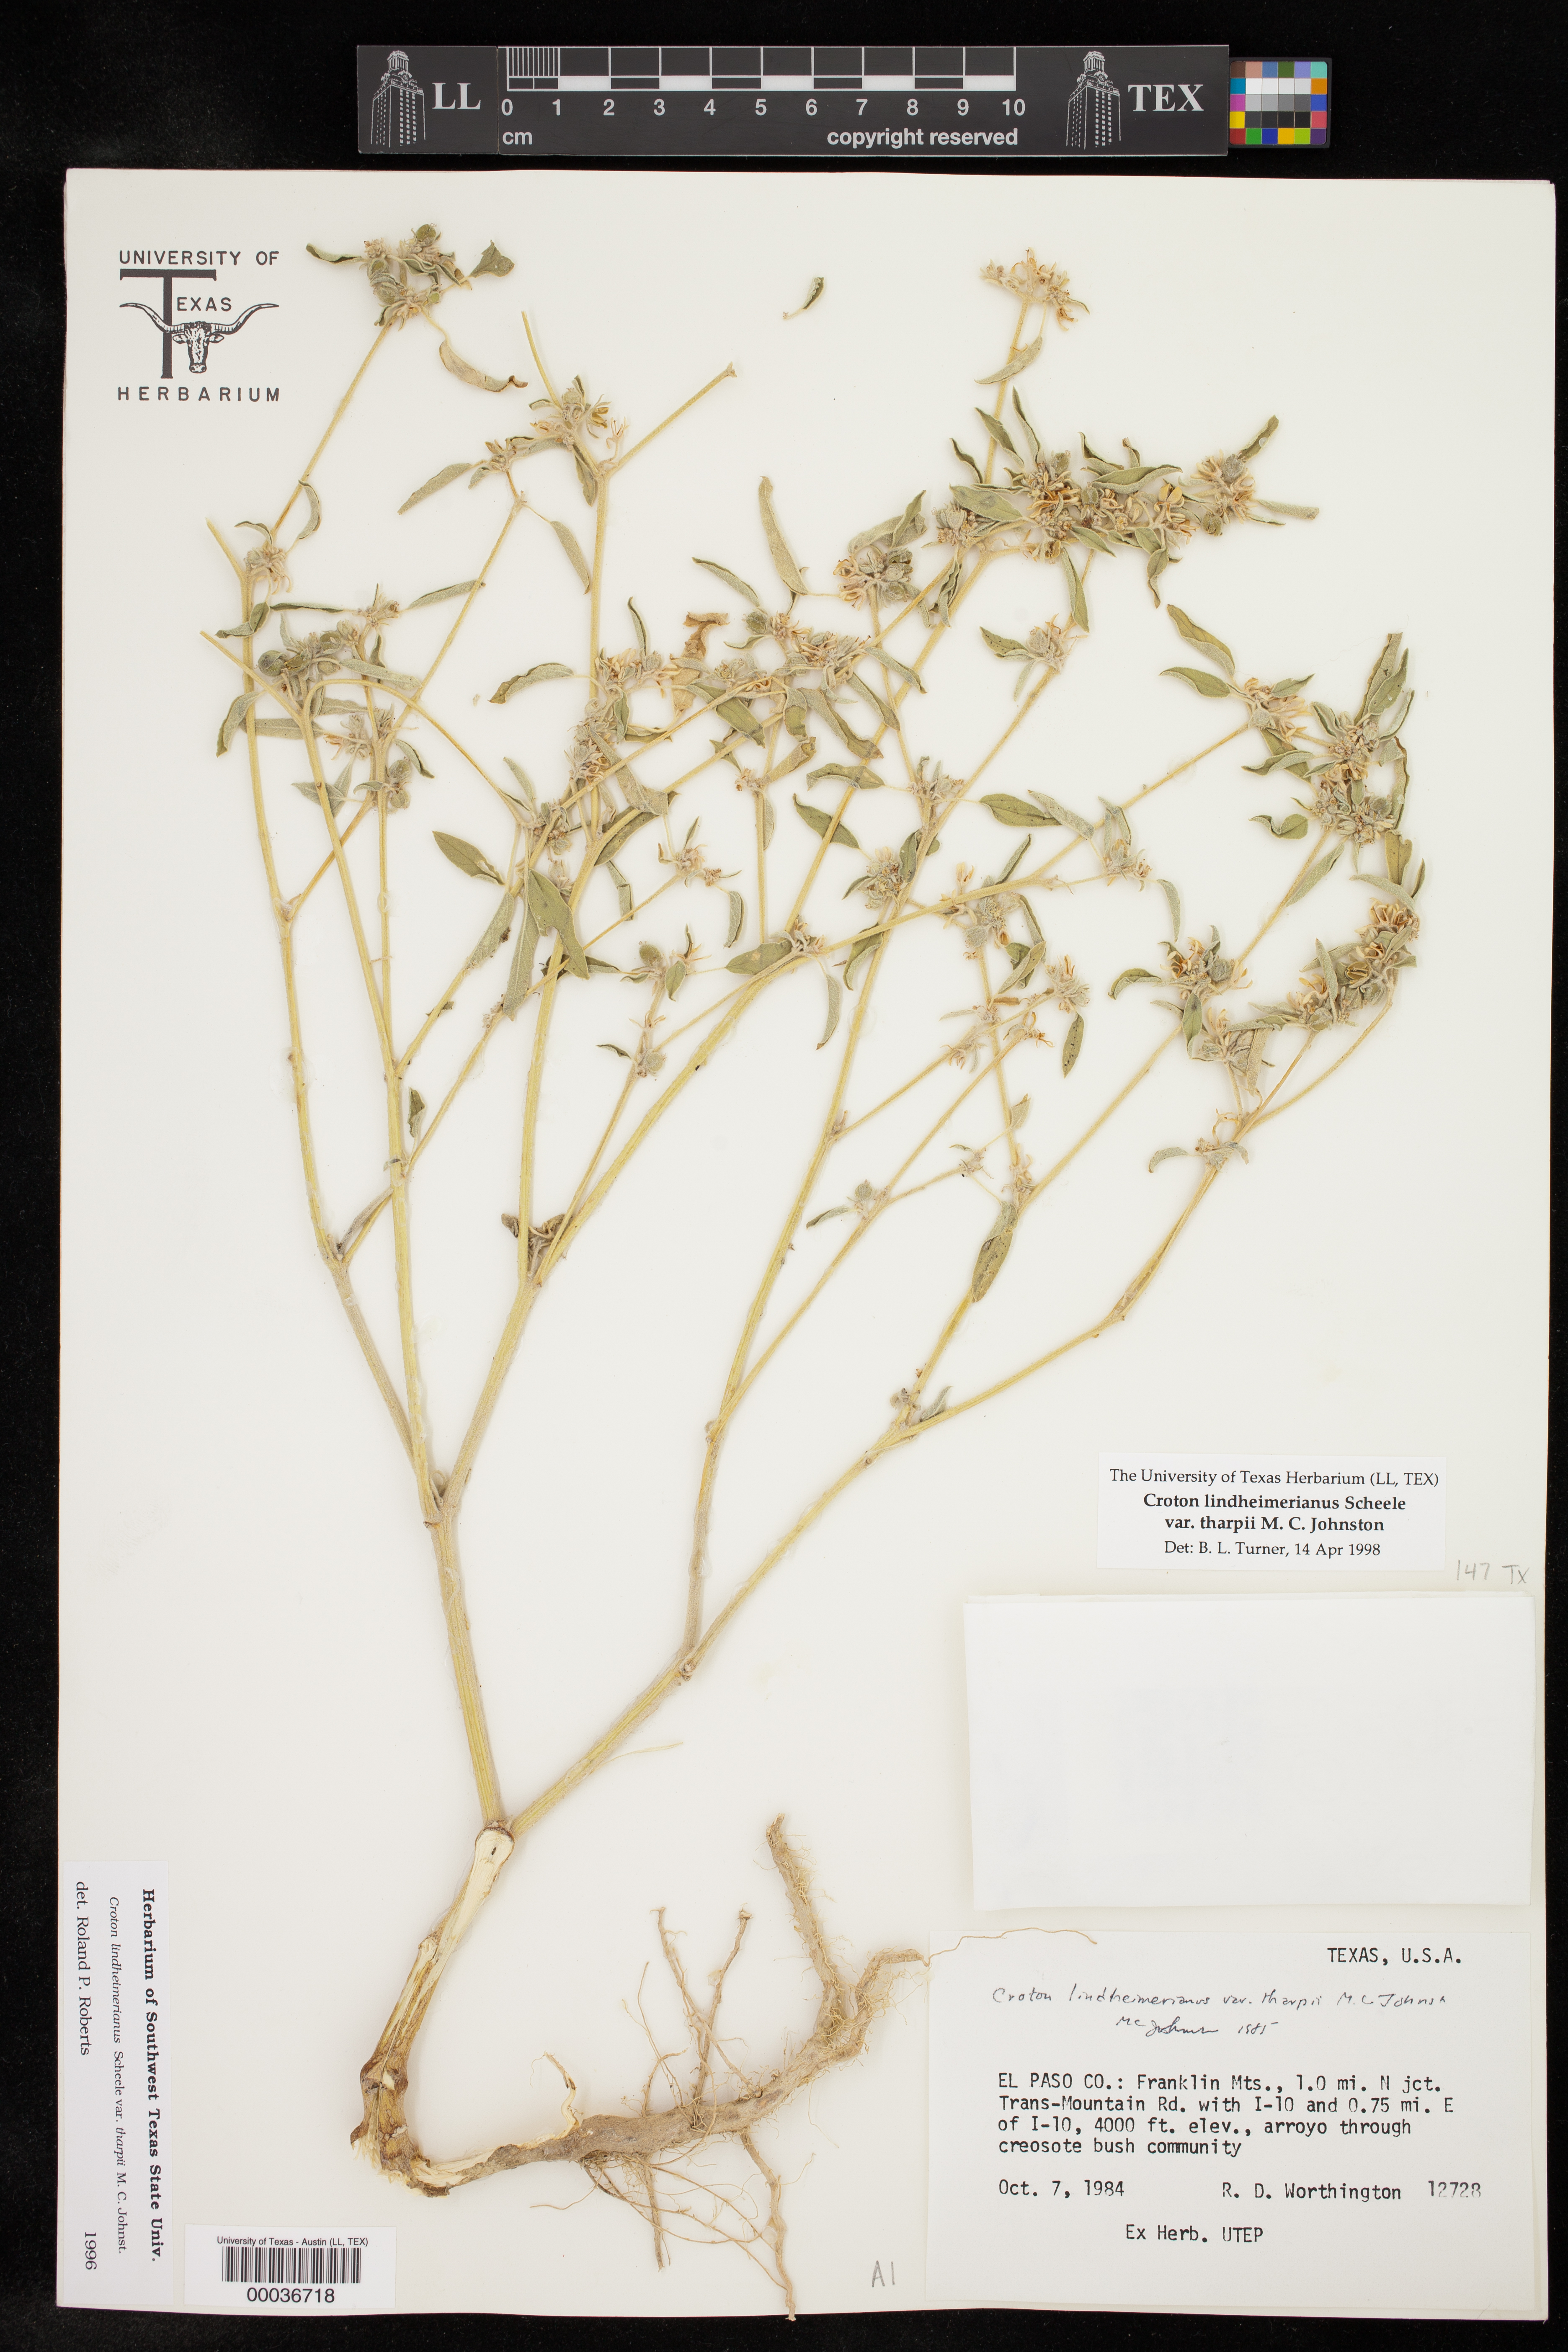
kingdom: Plantae
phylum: Tracheophyta
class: Magnoliopsida
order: Malpighiales
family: Euphorbiaceae
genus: Croton
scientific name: Croton lindheimerianus
